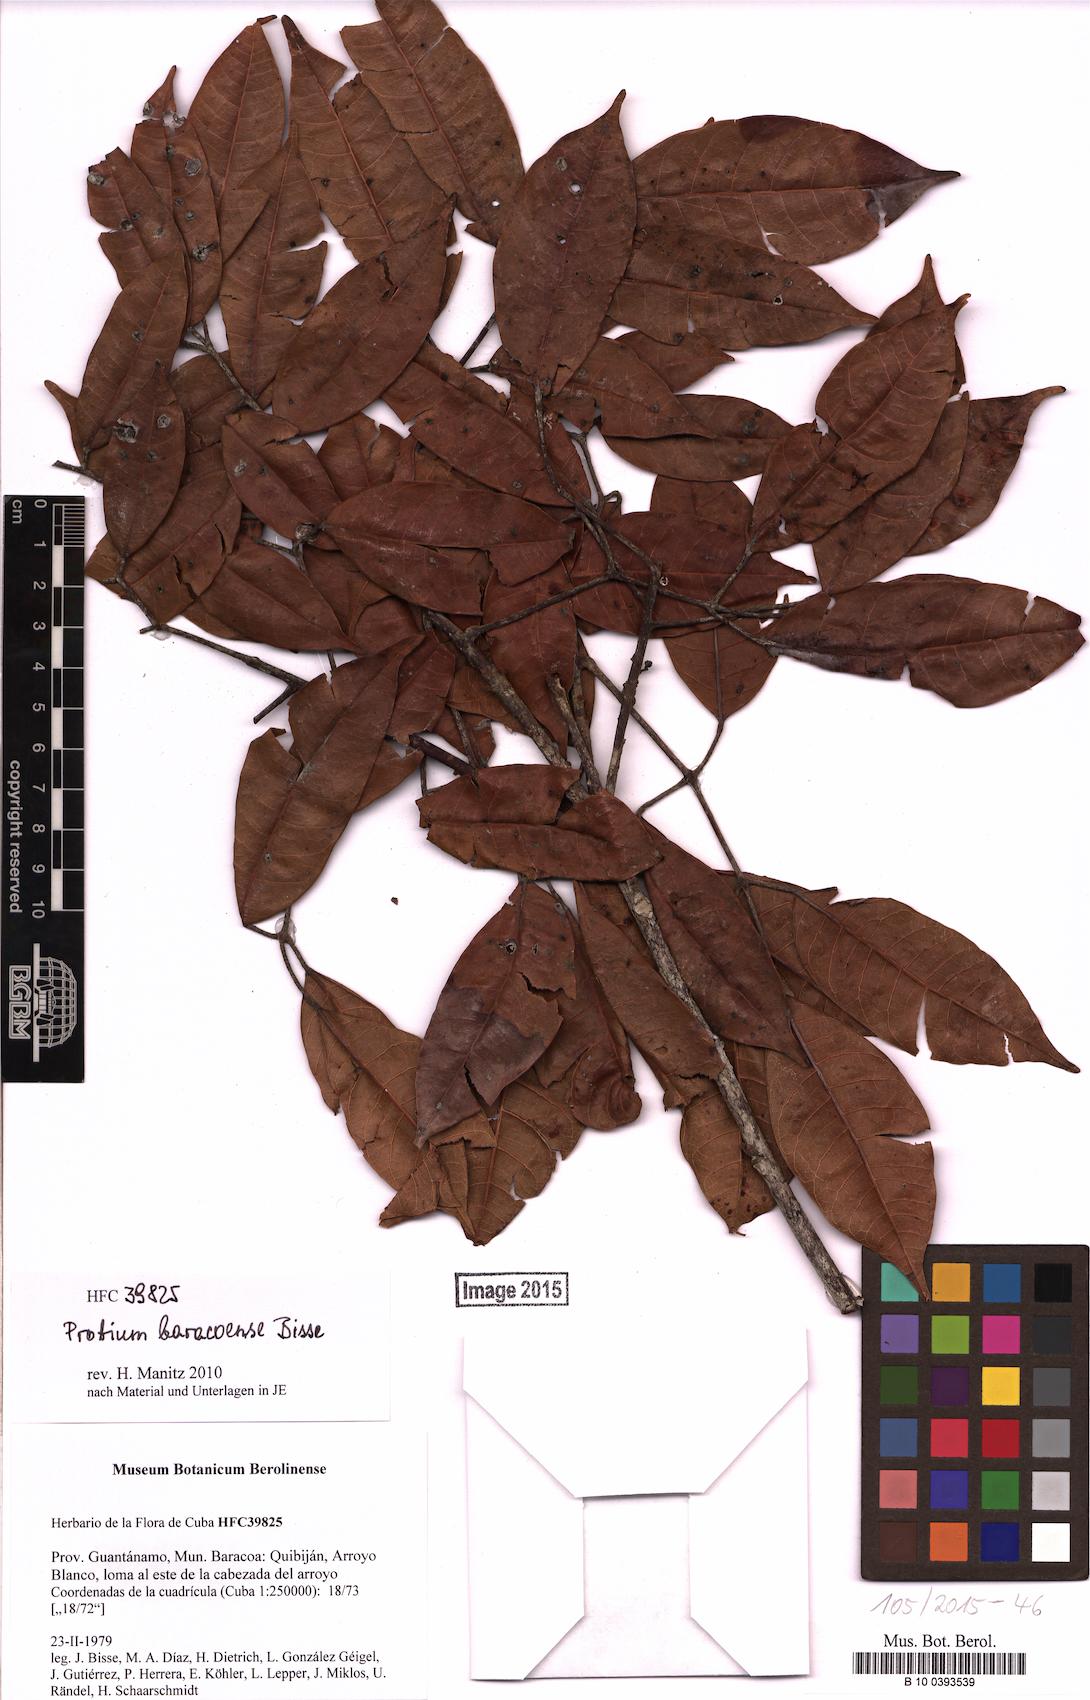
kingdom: Plantae
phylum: Tracheophyta
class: Magnoliopsida
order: Sapindales
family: Burseraceae
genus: Protium
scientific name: Protium baracoense
